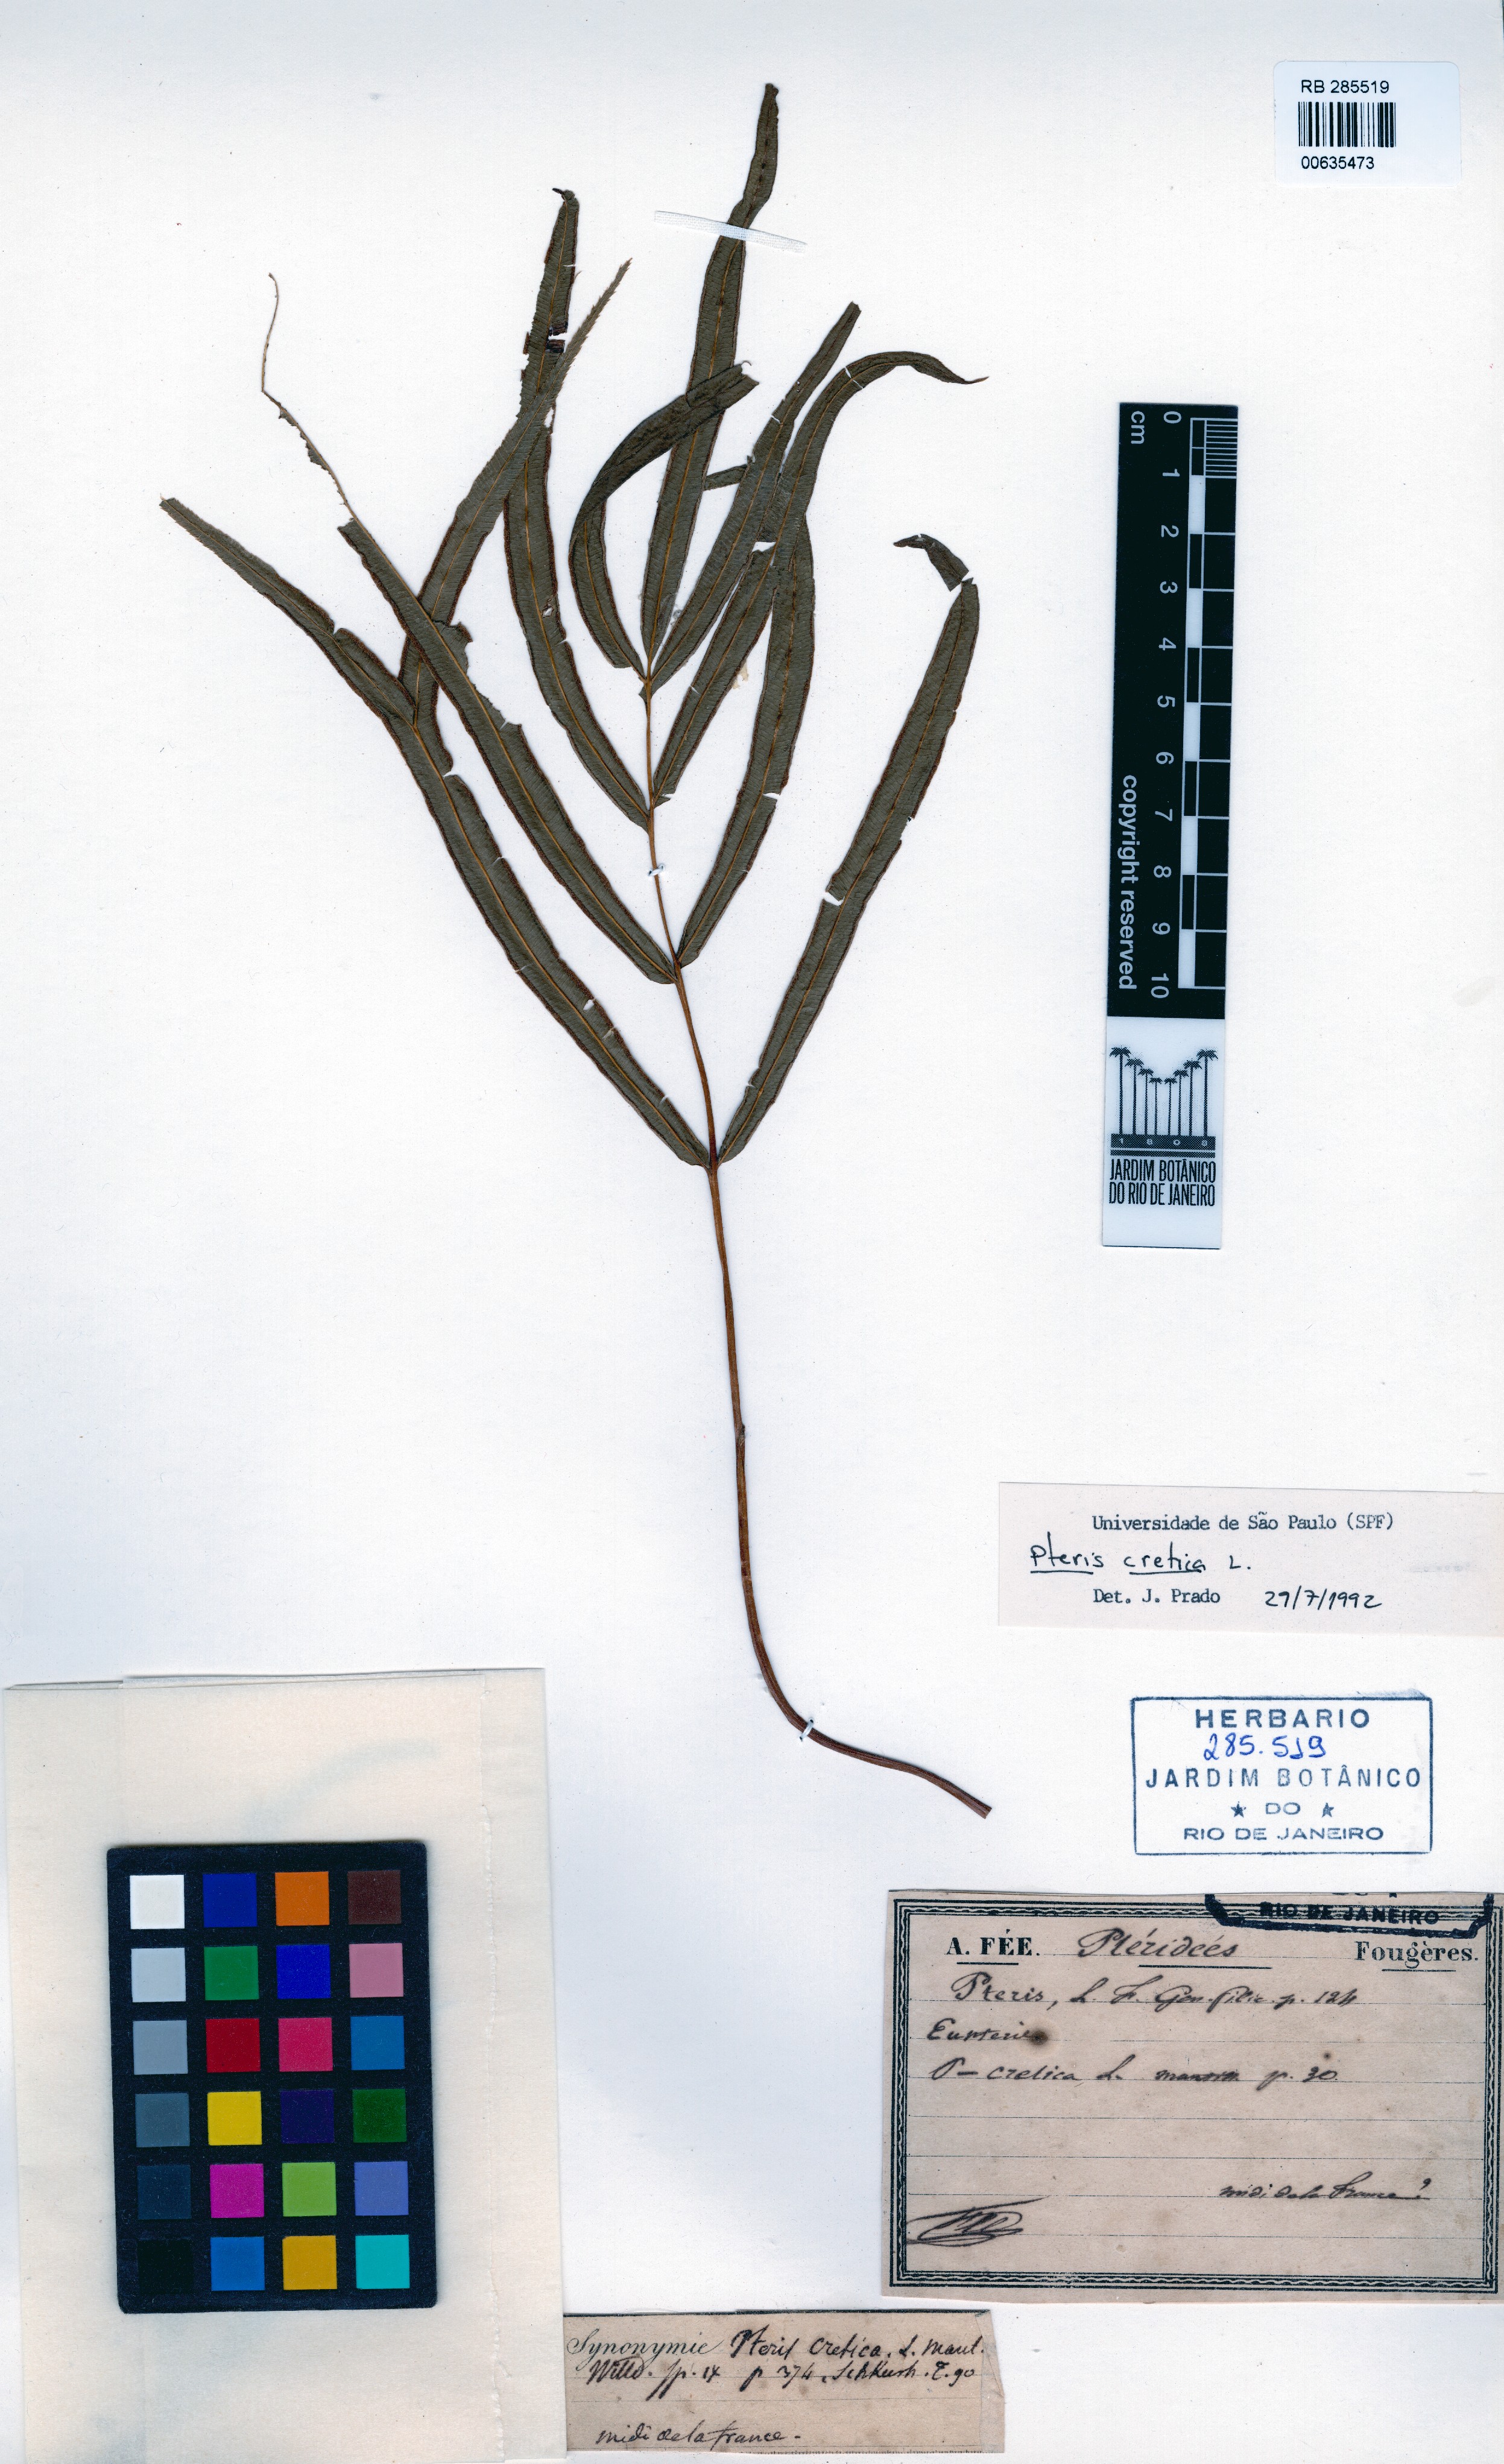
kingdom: Plantae
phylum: Tracheophyta
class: Polypodiopsida
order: Polypodiales
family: Pteridaceae
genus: Pteris
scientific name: Pteris cretica
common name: Ribbon fern
